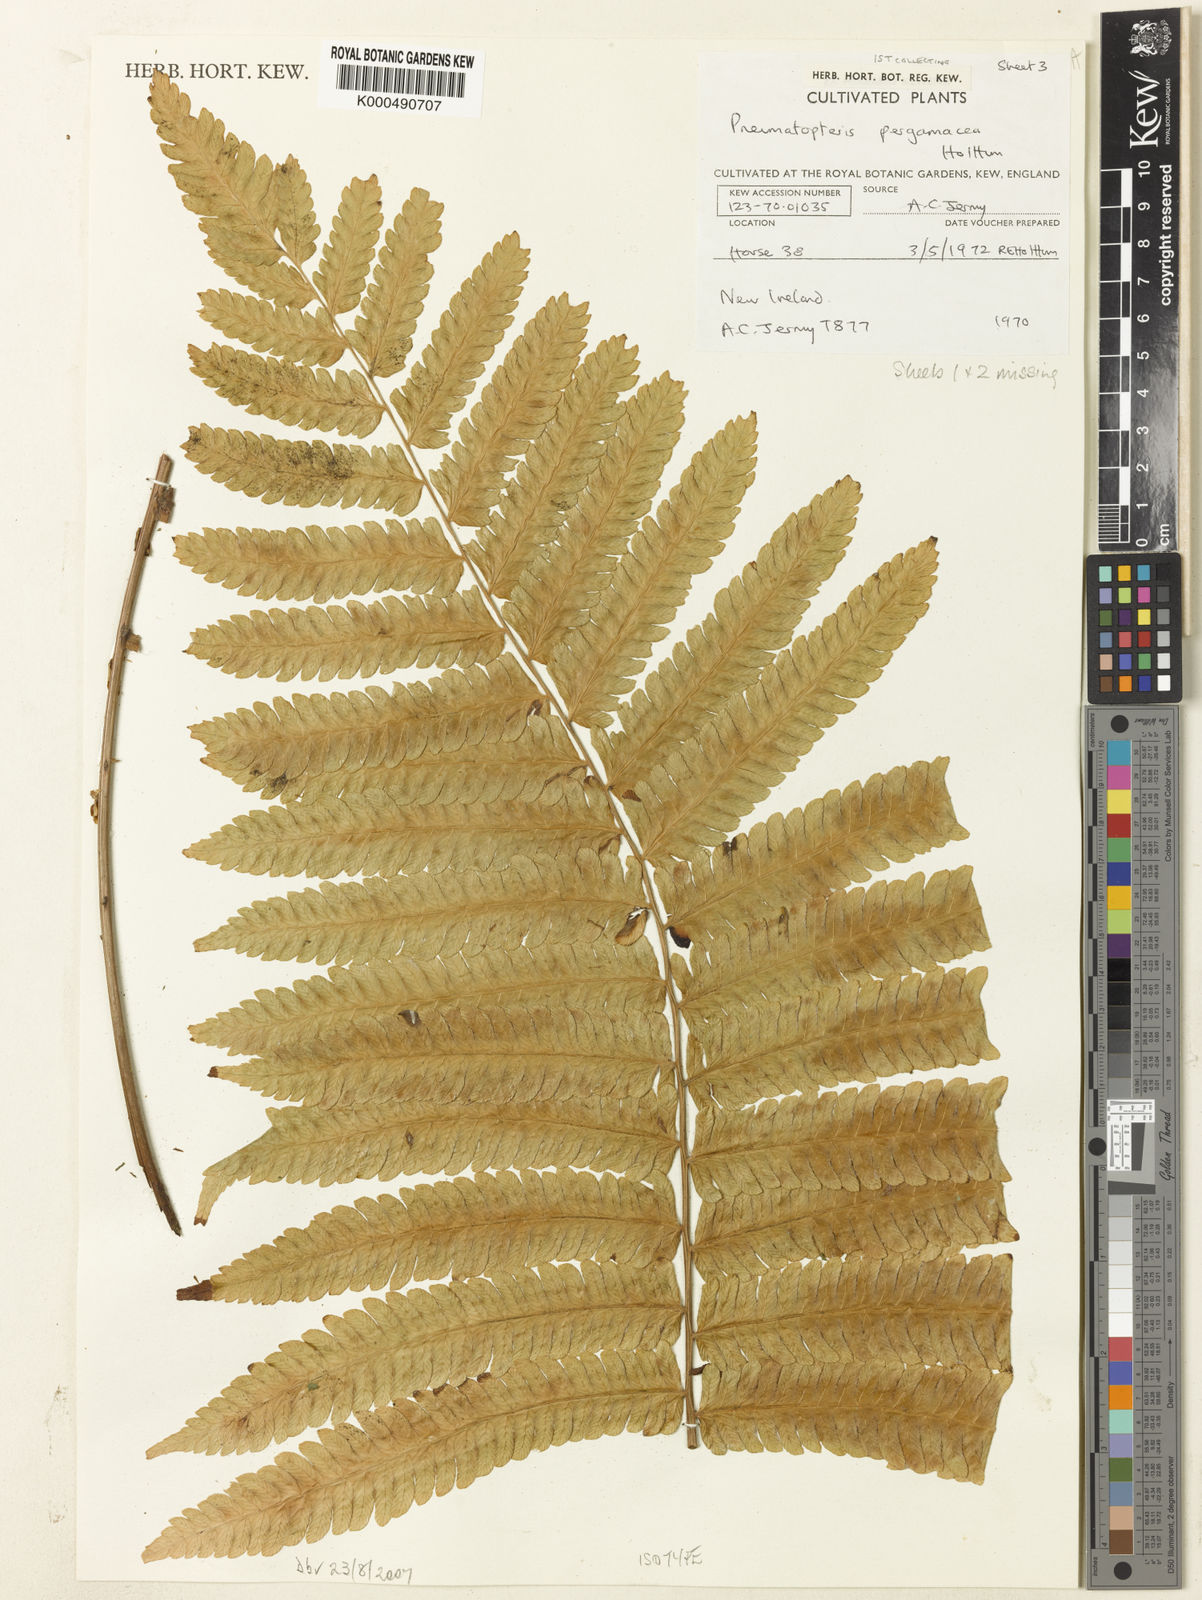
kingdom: Plantae
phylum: Tracheophyta
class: Polypodiopsida
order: Polypodiales
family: Thelypteridaceae
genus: Reholttumia
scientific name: Reholttumia pergamacea
